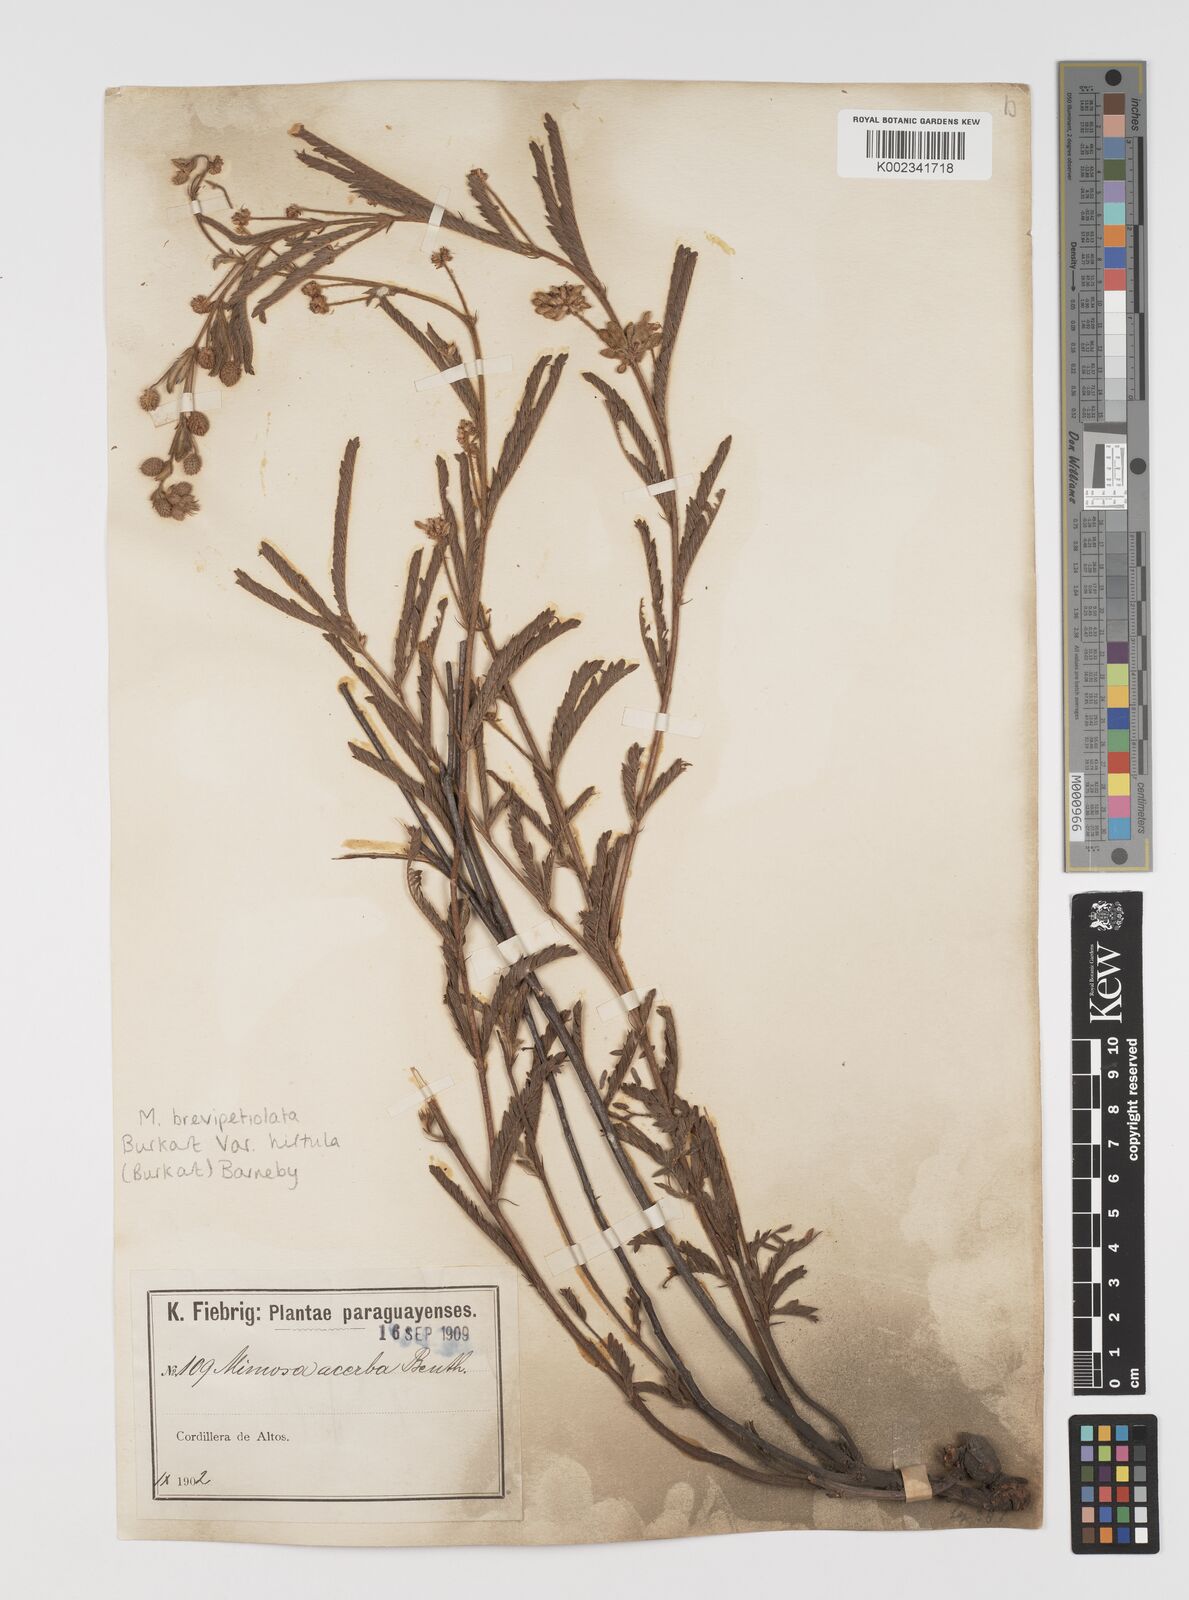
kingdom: Plantae
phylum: Tracheophyta
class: Magnoliopsida
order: Fabales
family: Fabaceae
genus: Mimosa
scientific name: Mimosa brevipetiolata
